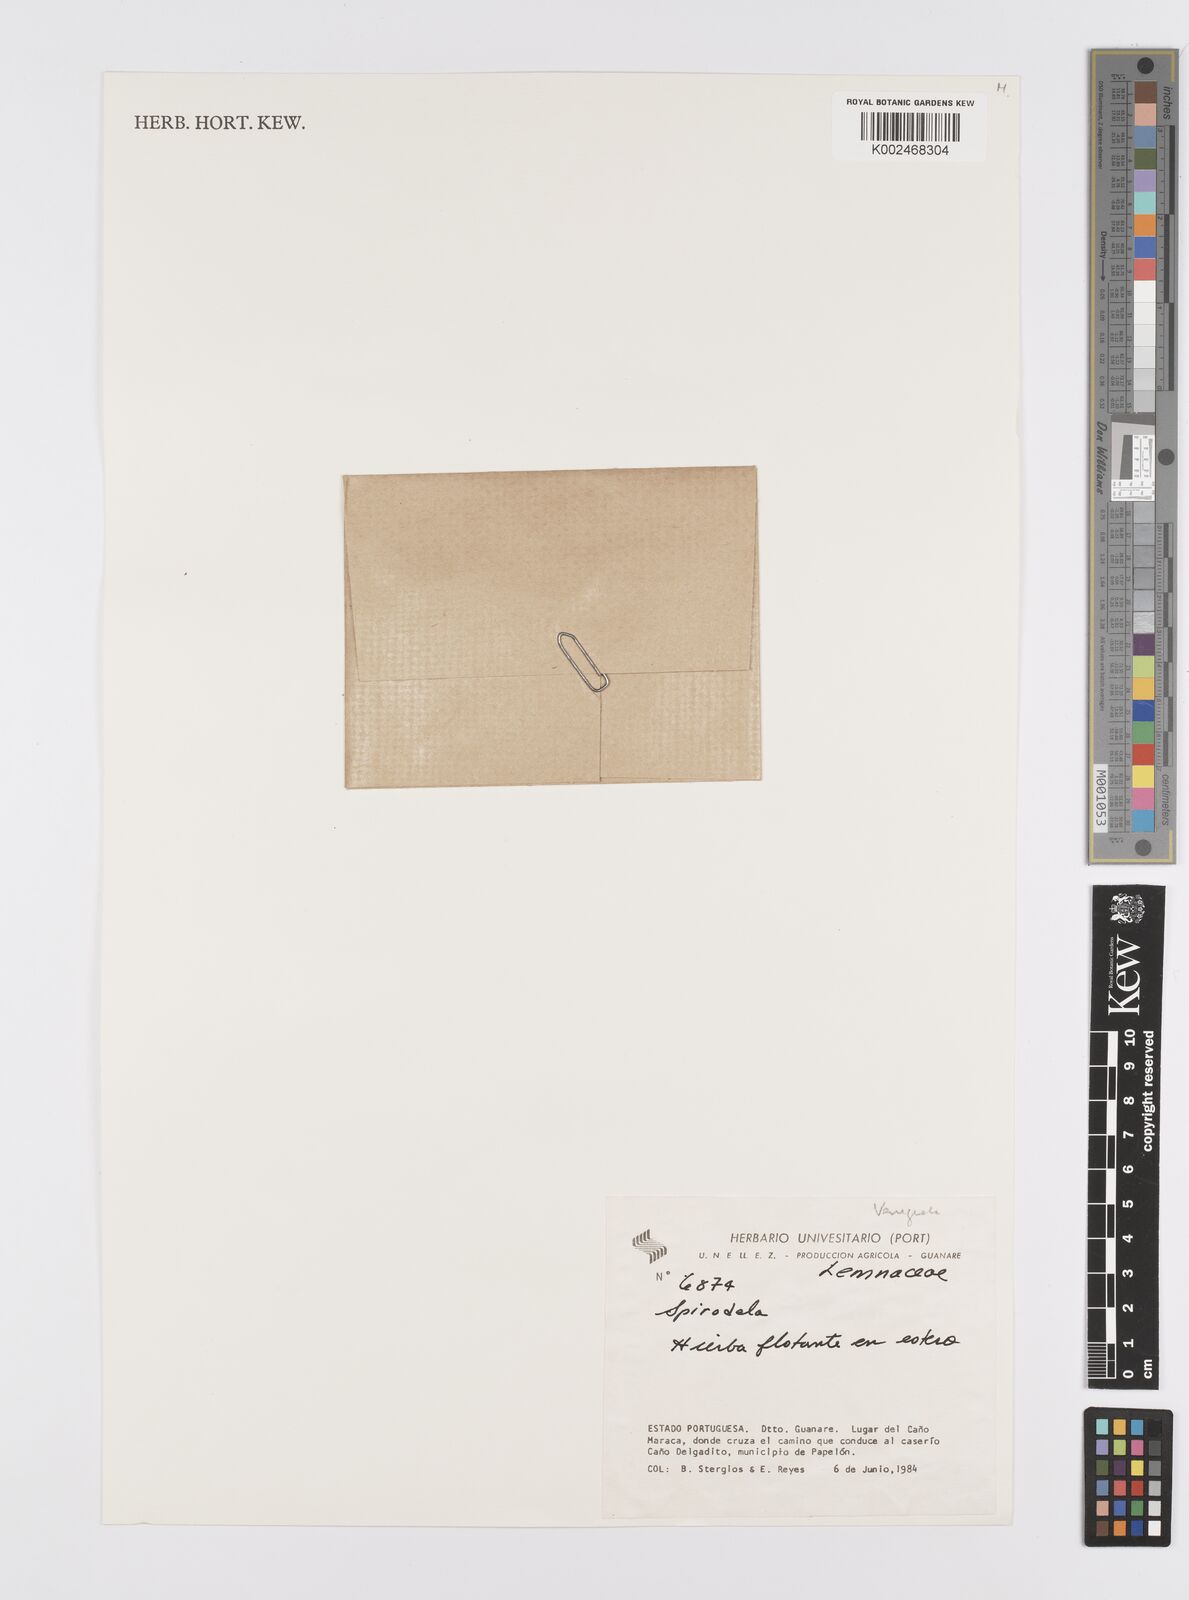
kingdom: Plantae
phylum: Tracheophyta
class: Liliopsida
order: Alismatales
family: Araceae
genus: Lemna
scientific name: Lemna
